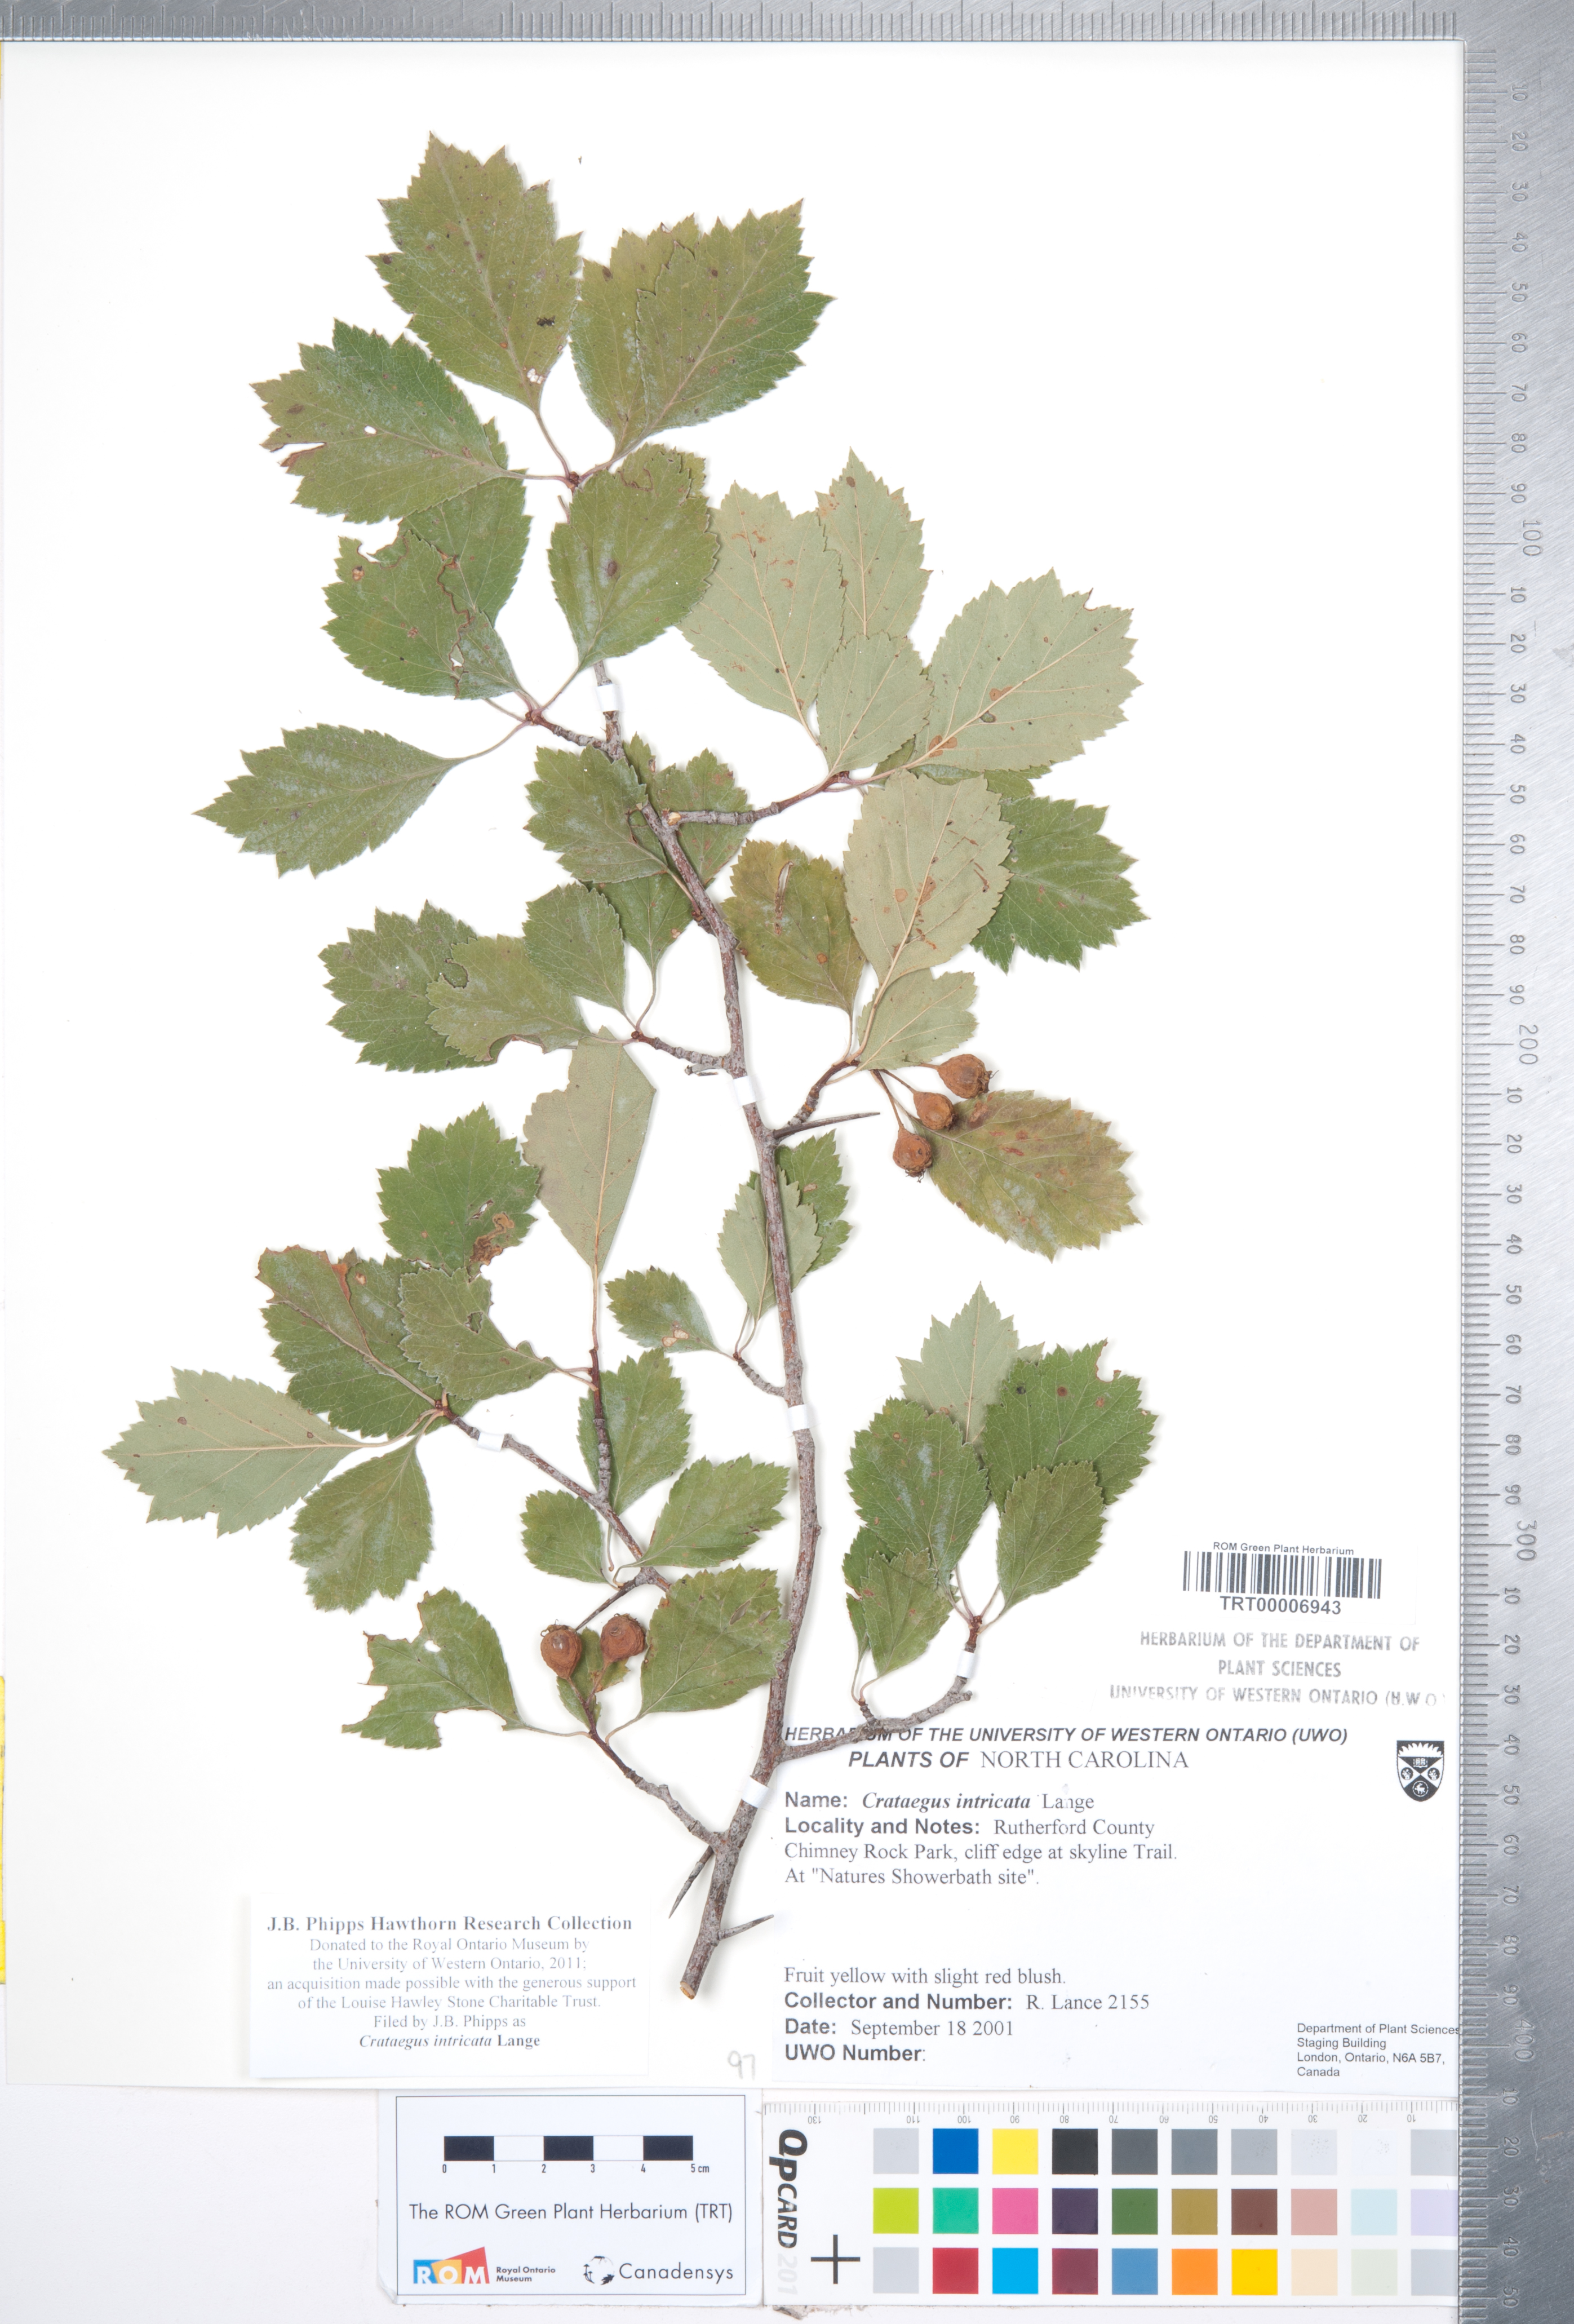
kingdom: Plantae
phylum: Tracheophyta
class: Magnoliopsida
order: Rosales
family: Rosaceae
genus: Crataegus
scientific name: Crataegus intricata
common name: Biltmore hawthorn
